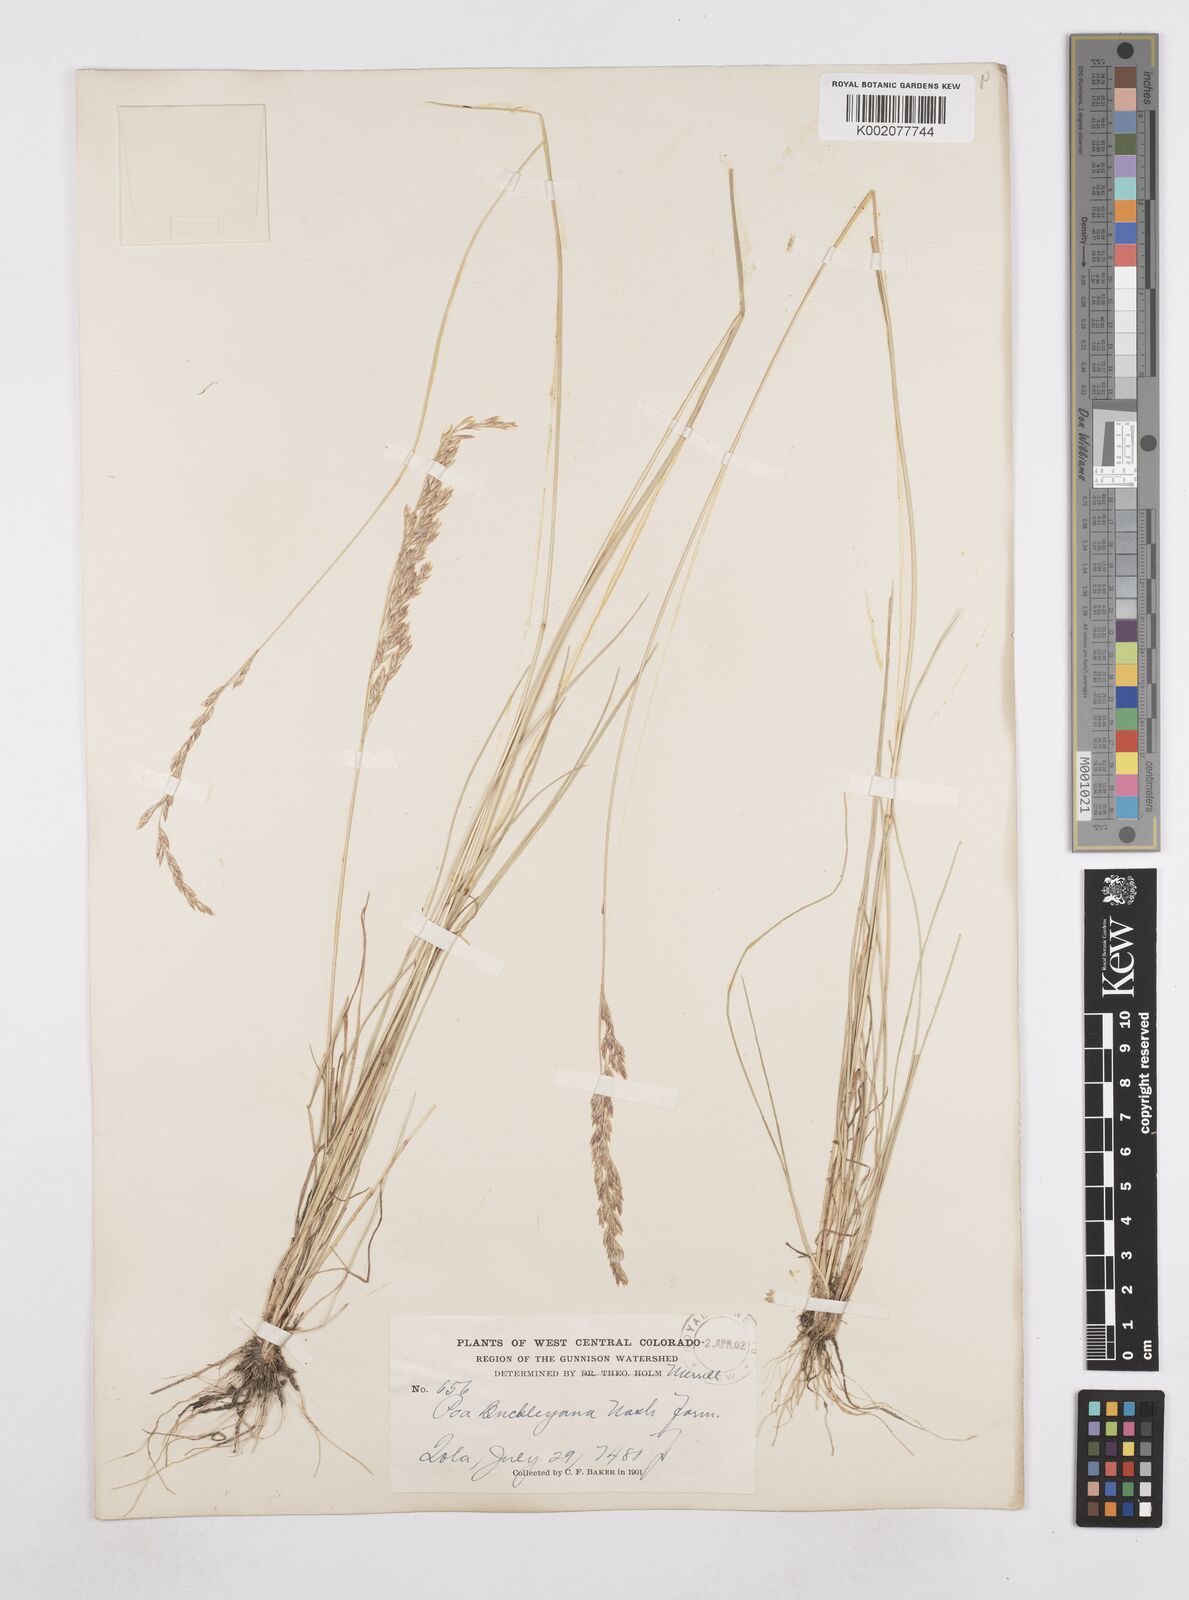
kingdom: Plantae
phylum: Tracheophyta
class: Liliopsida
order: Poales
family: Poaceae
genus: Poa
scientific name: Poa secunda
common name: Sandberg bluegrass
